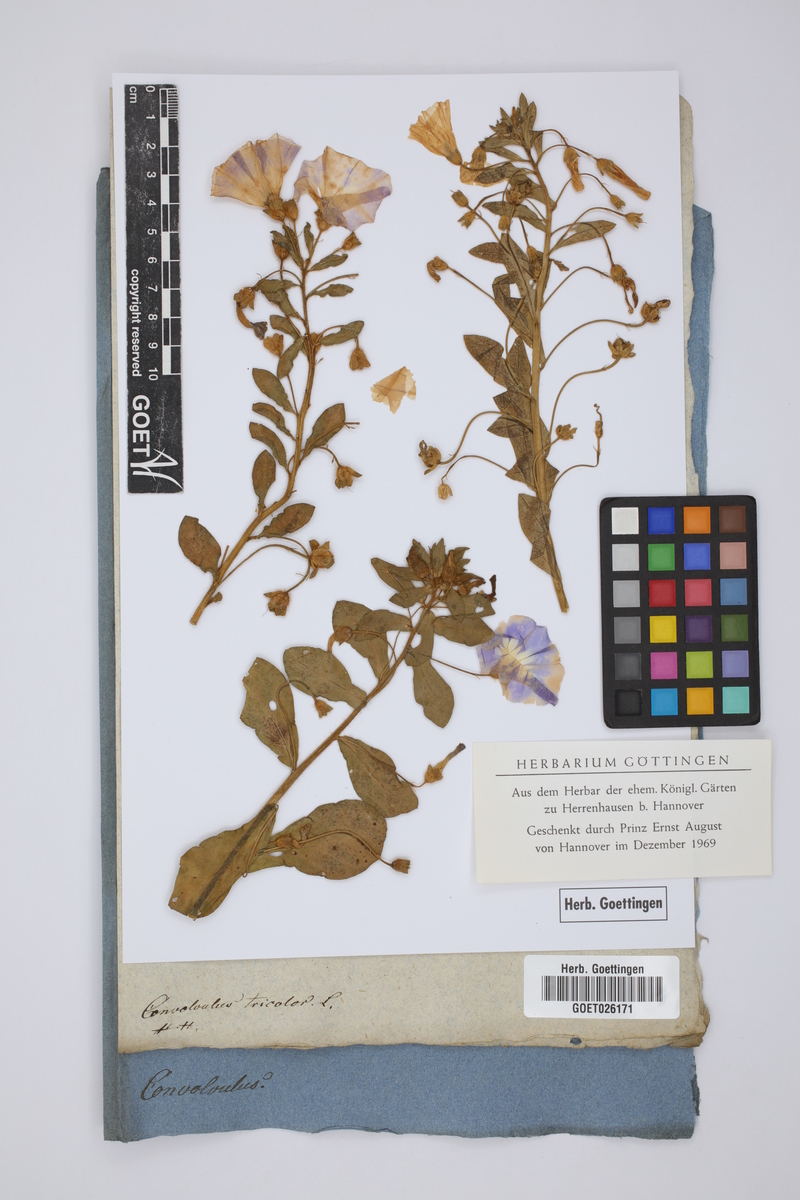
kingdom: Plantae
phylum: Tracheophyta
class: Magnoliopsida
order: Solanales
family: Convolvulaceae
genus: Convolvulus
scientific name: Convolvulus tricolor
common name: Dwarf morning-glory
